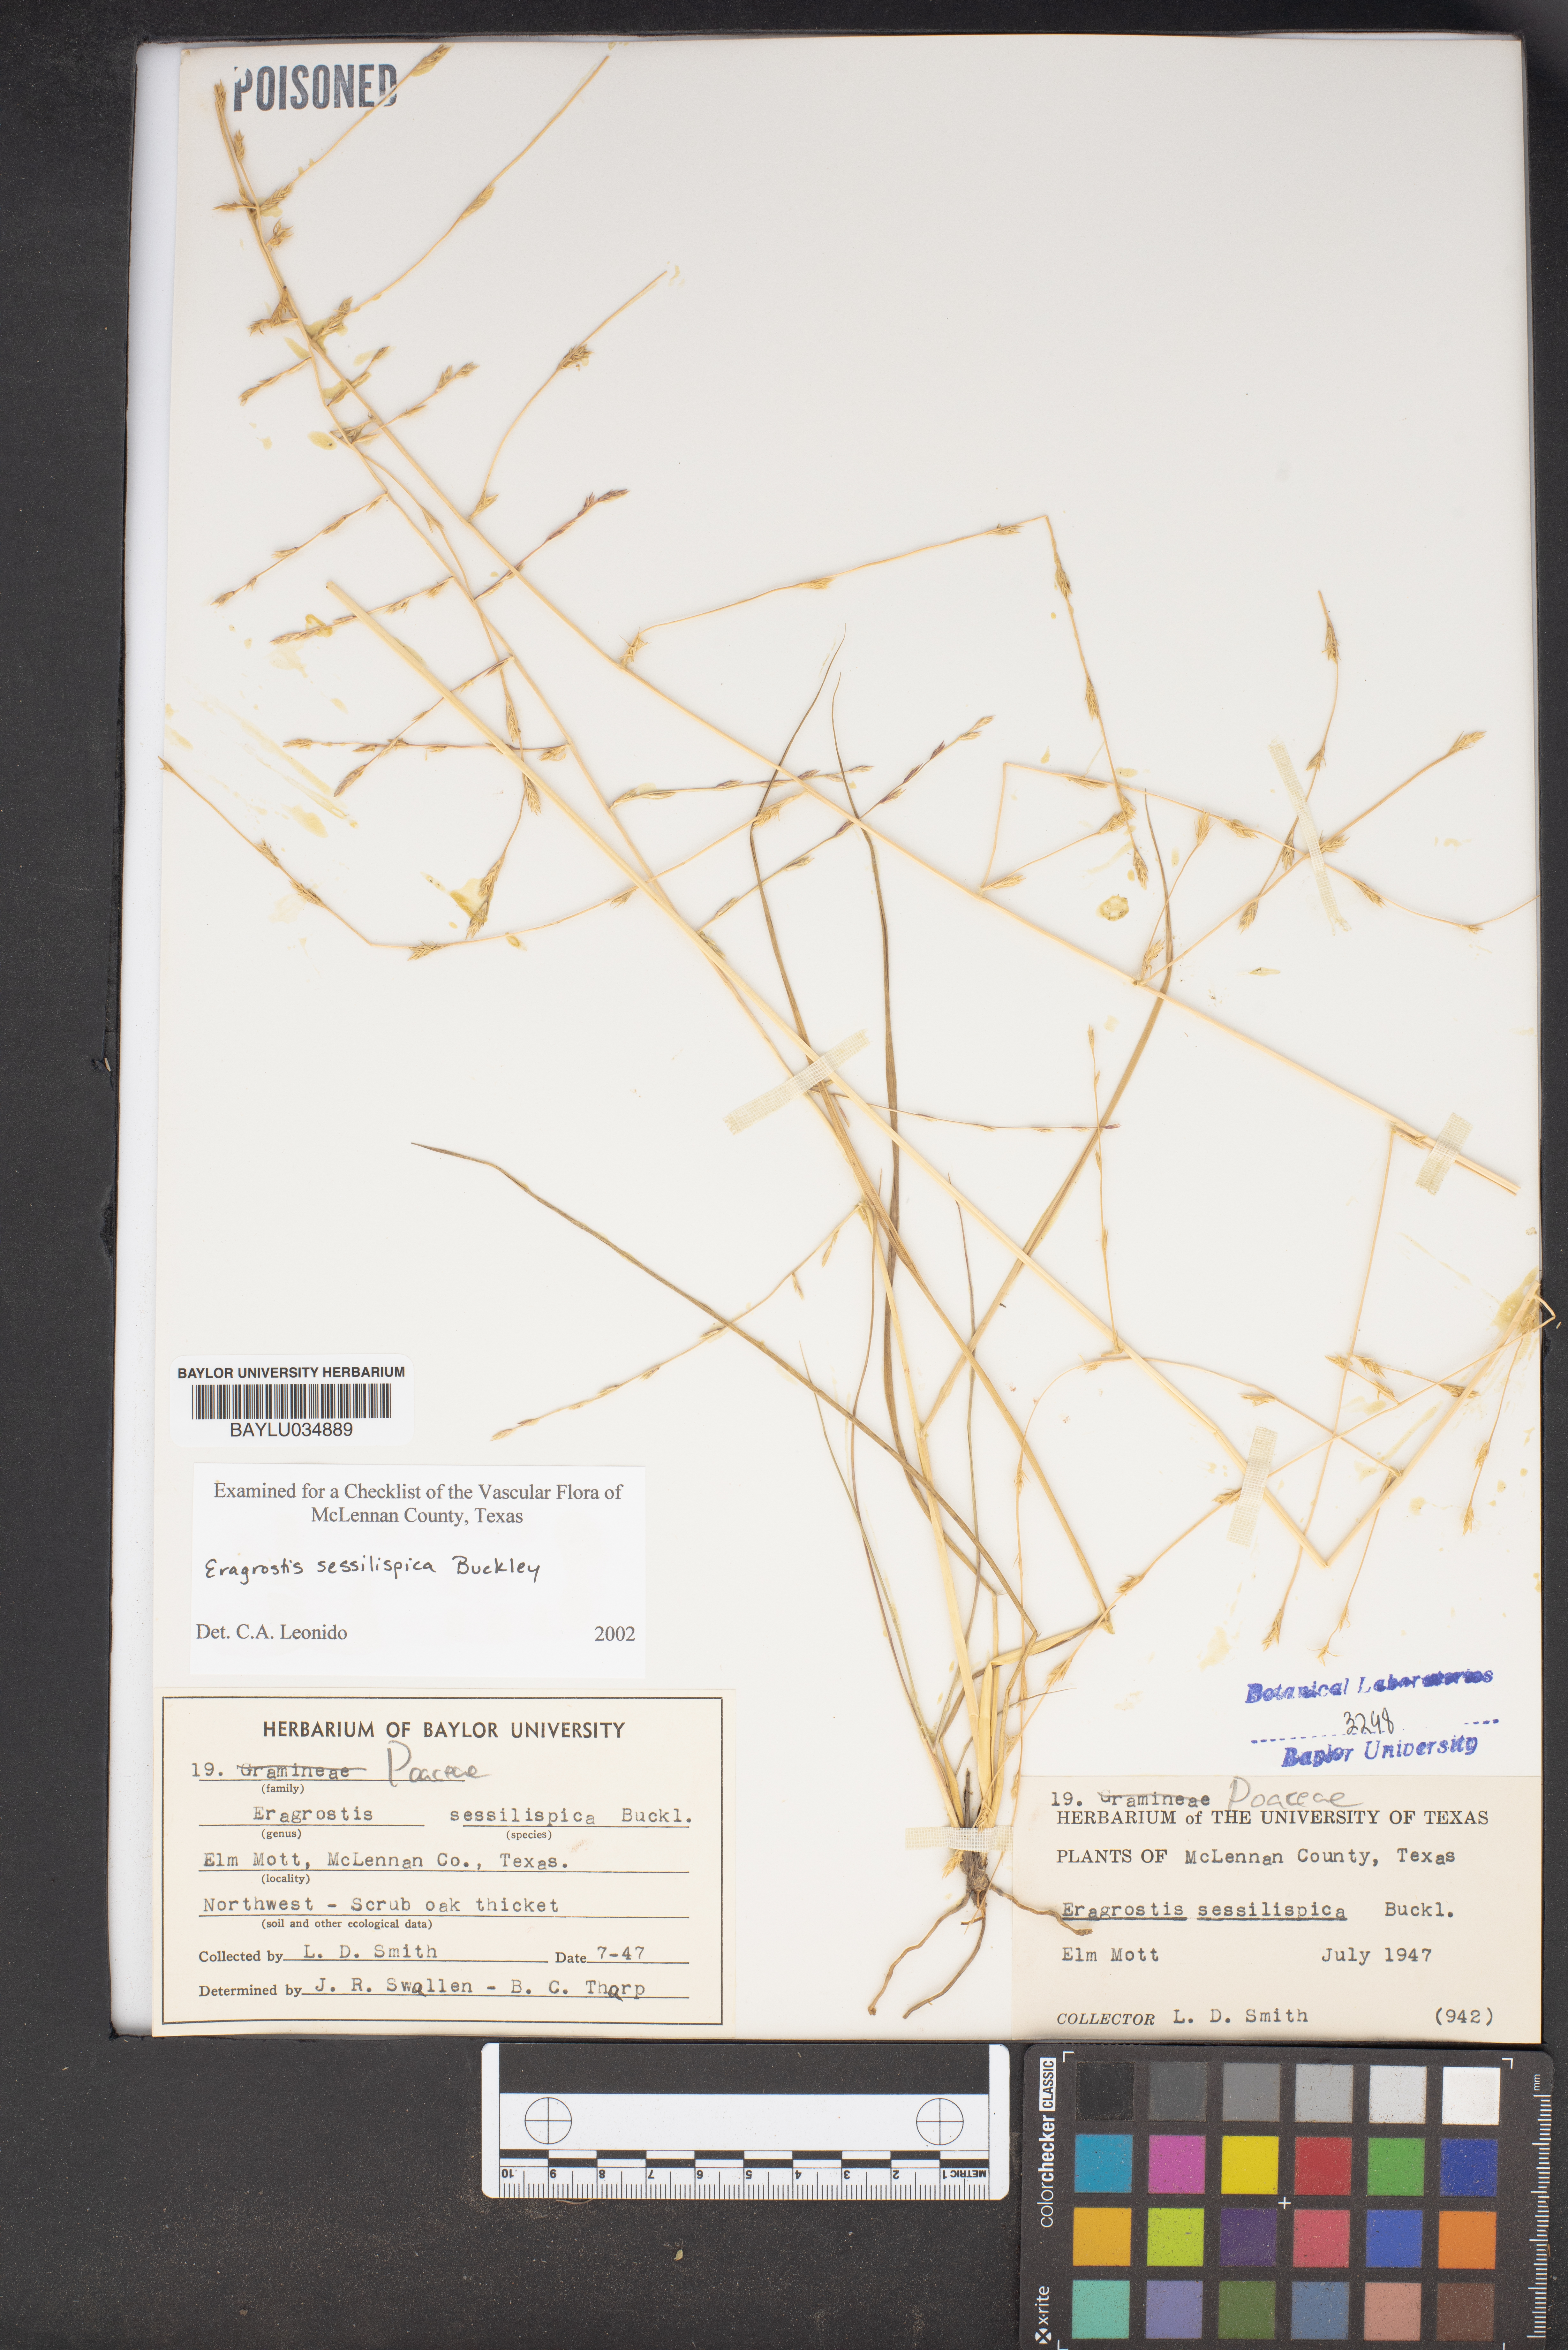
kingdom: Plantae
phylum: Tracheophyta
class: Liliopsida
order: Poales
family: Poaceae
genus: Eragrostis
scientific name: Eragrostis sessilispica
